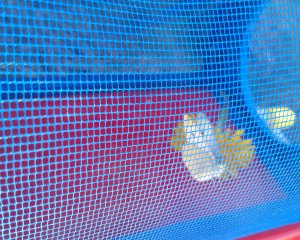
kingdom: Animalia
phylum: Arthropoda
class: Insecta
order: Lepidoptera
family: Pieridae
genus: Pieris
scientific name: Pieris rapae
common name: Cabbage White
